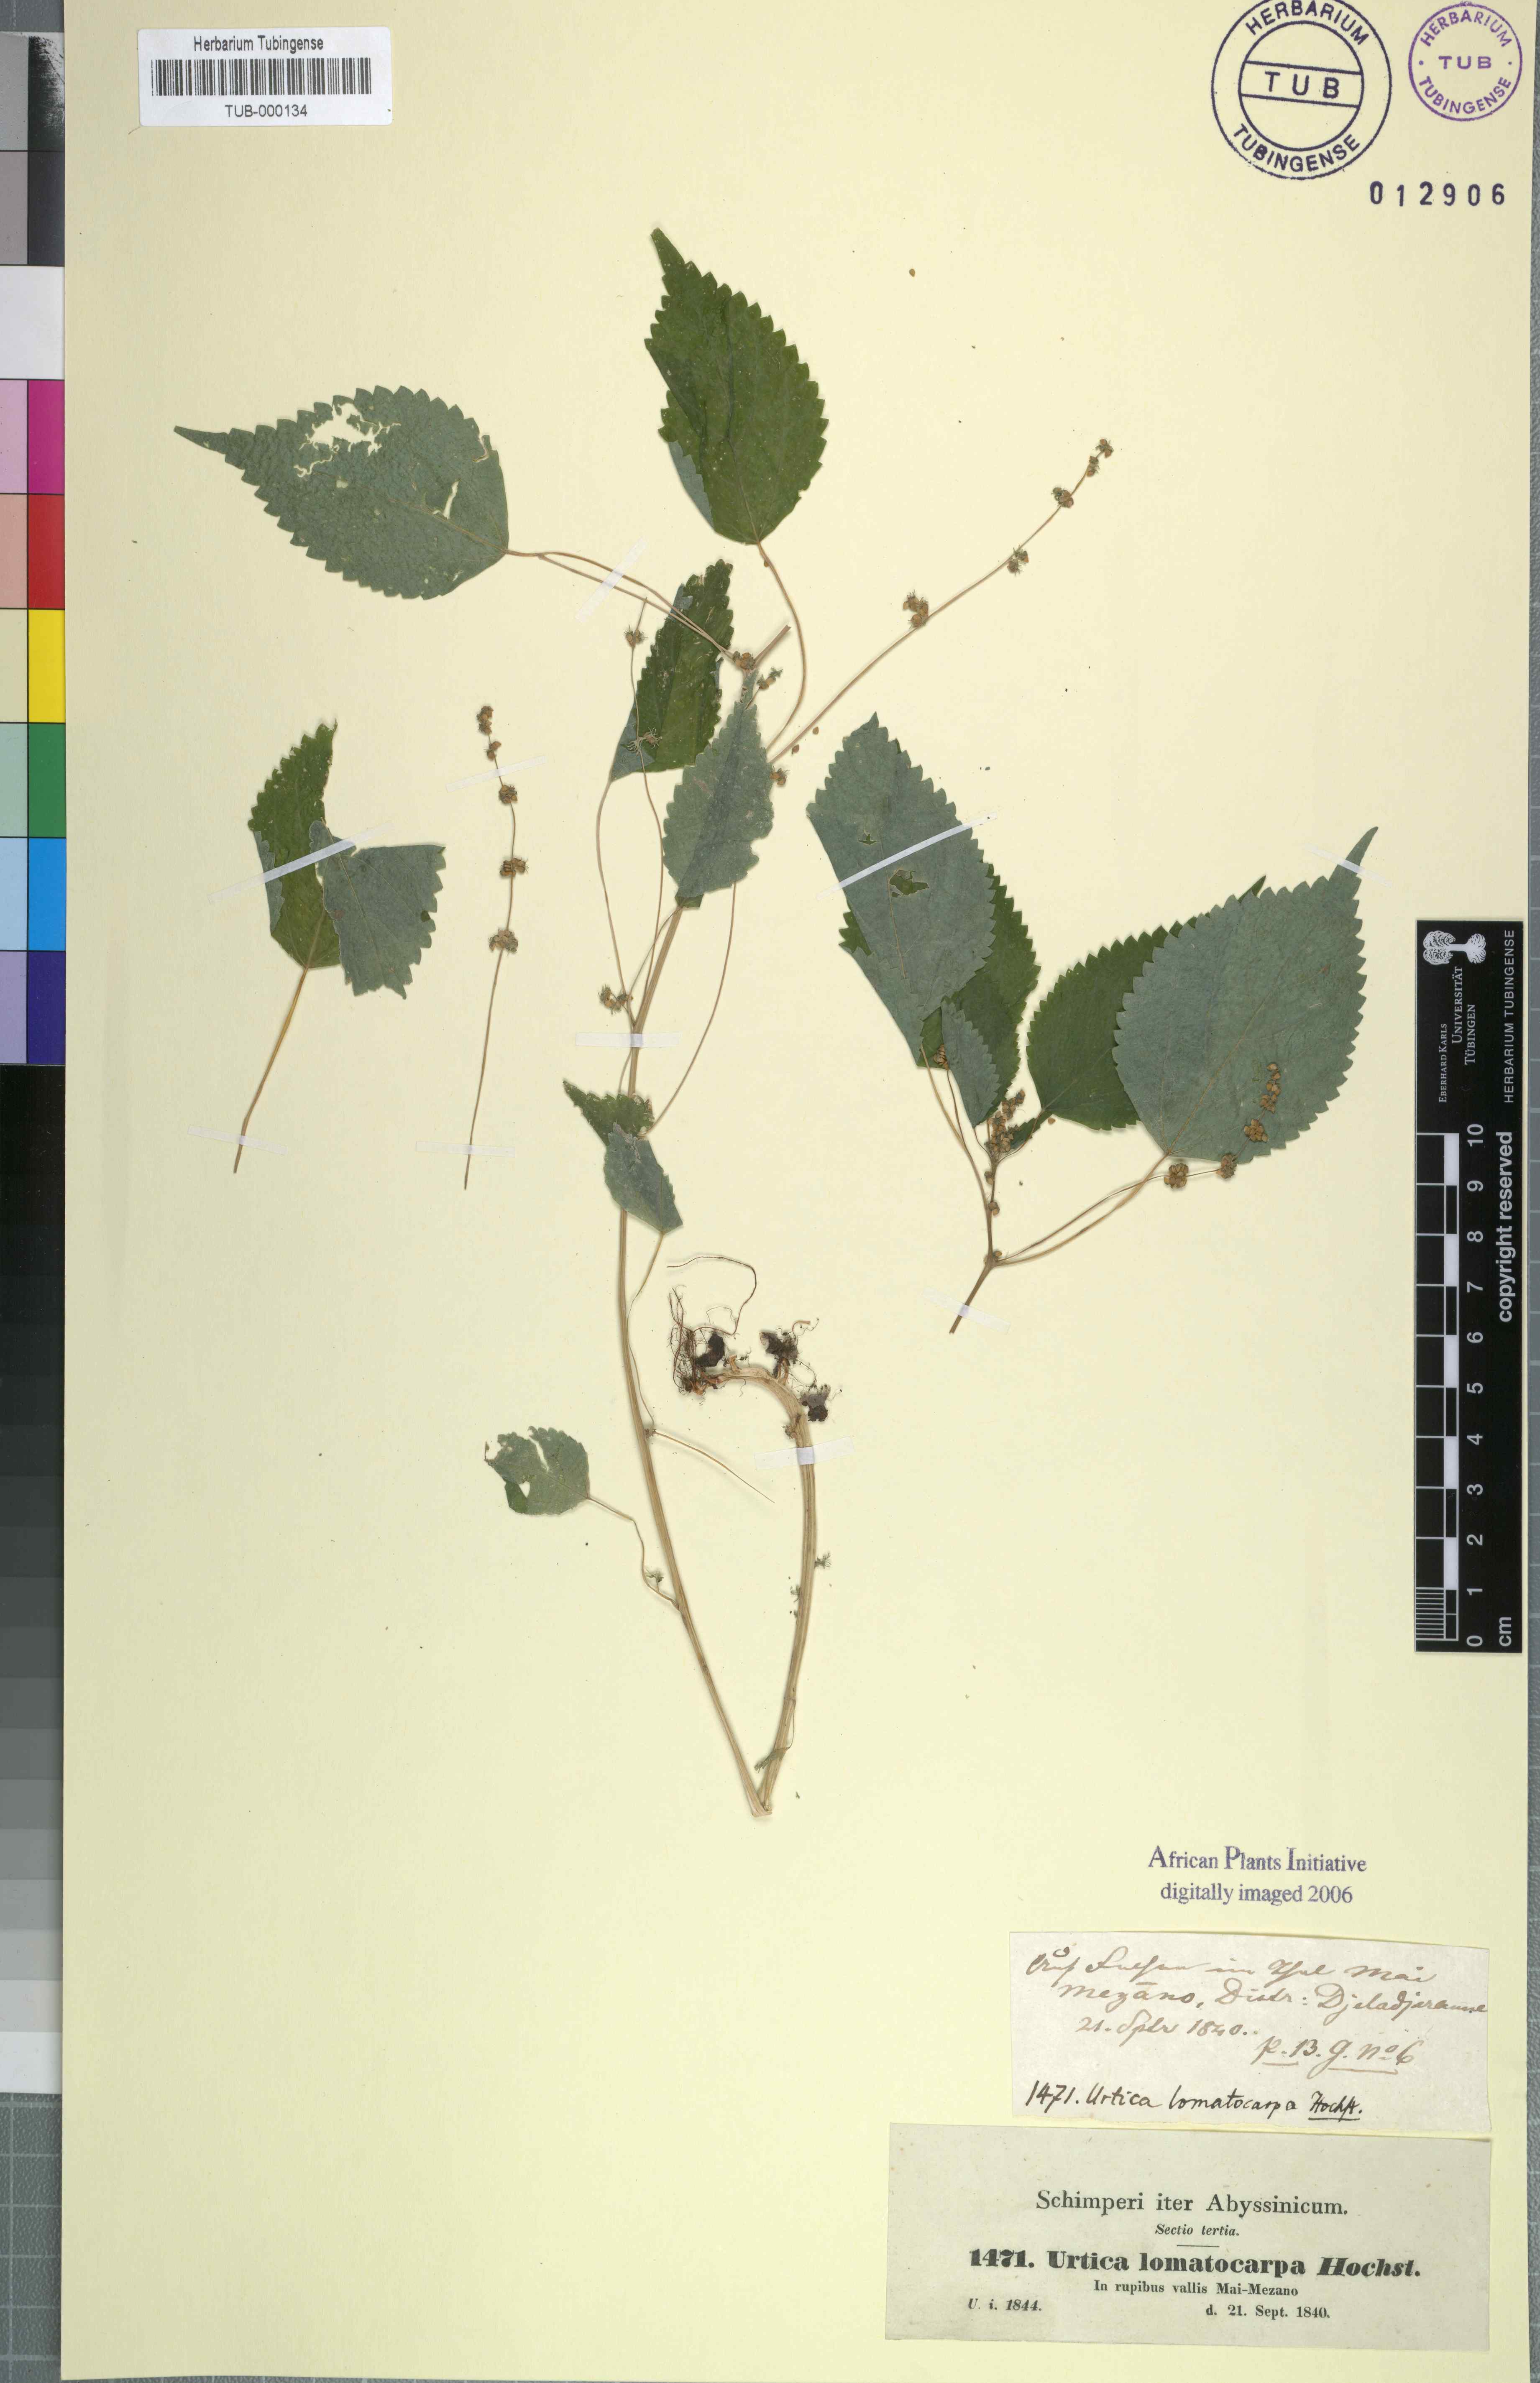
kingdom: Plantae
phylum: Tracheophyta
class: Magnoliopsida
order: Rosales
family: Urticaceae
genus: Laportea
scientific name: Laportea interrupta
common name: Hawaiian wood-nettle
